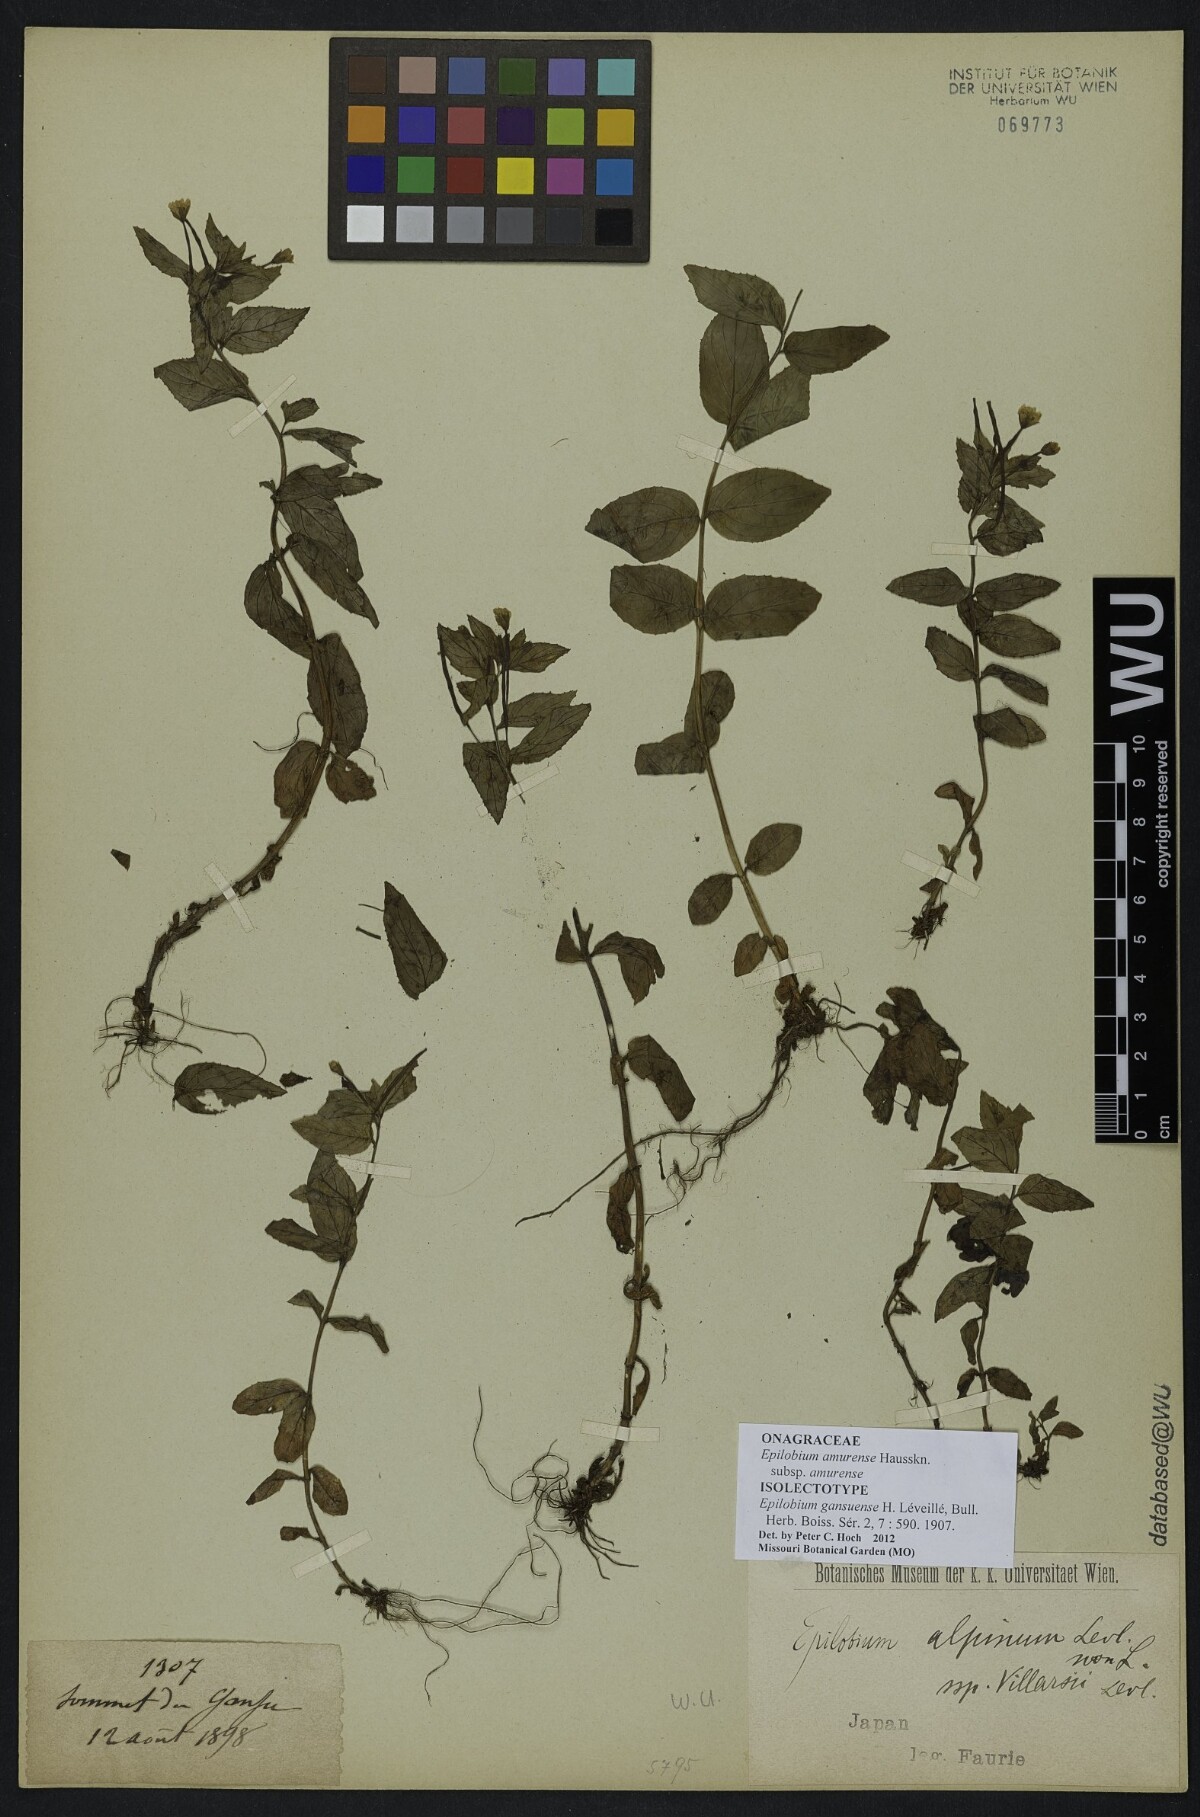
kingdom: Plantae
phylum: Tracheophyta
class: Magnoliopsida
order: Myrtales
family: Onagraceae
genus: Epilobium
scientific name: Epilobium amurense
